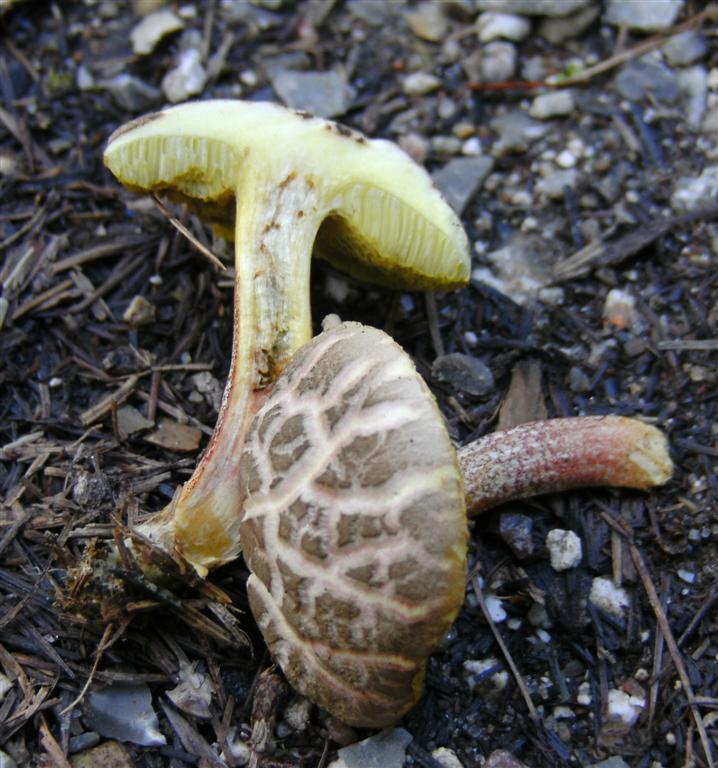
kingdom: Fungi
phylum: Basidiomycota
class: Agaricomycetes
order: Boletales
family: Boletaceae
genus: Xerocomellus
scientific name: Xerocomellus chrysenteron
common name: rødsprukken rørhat
